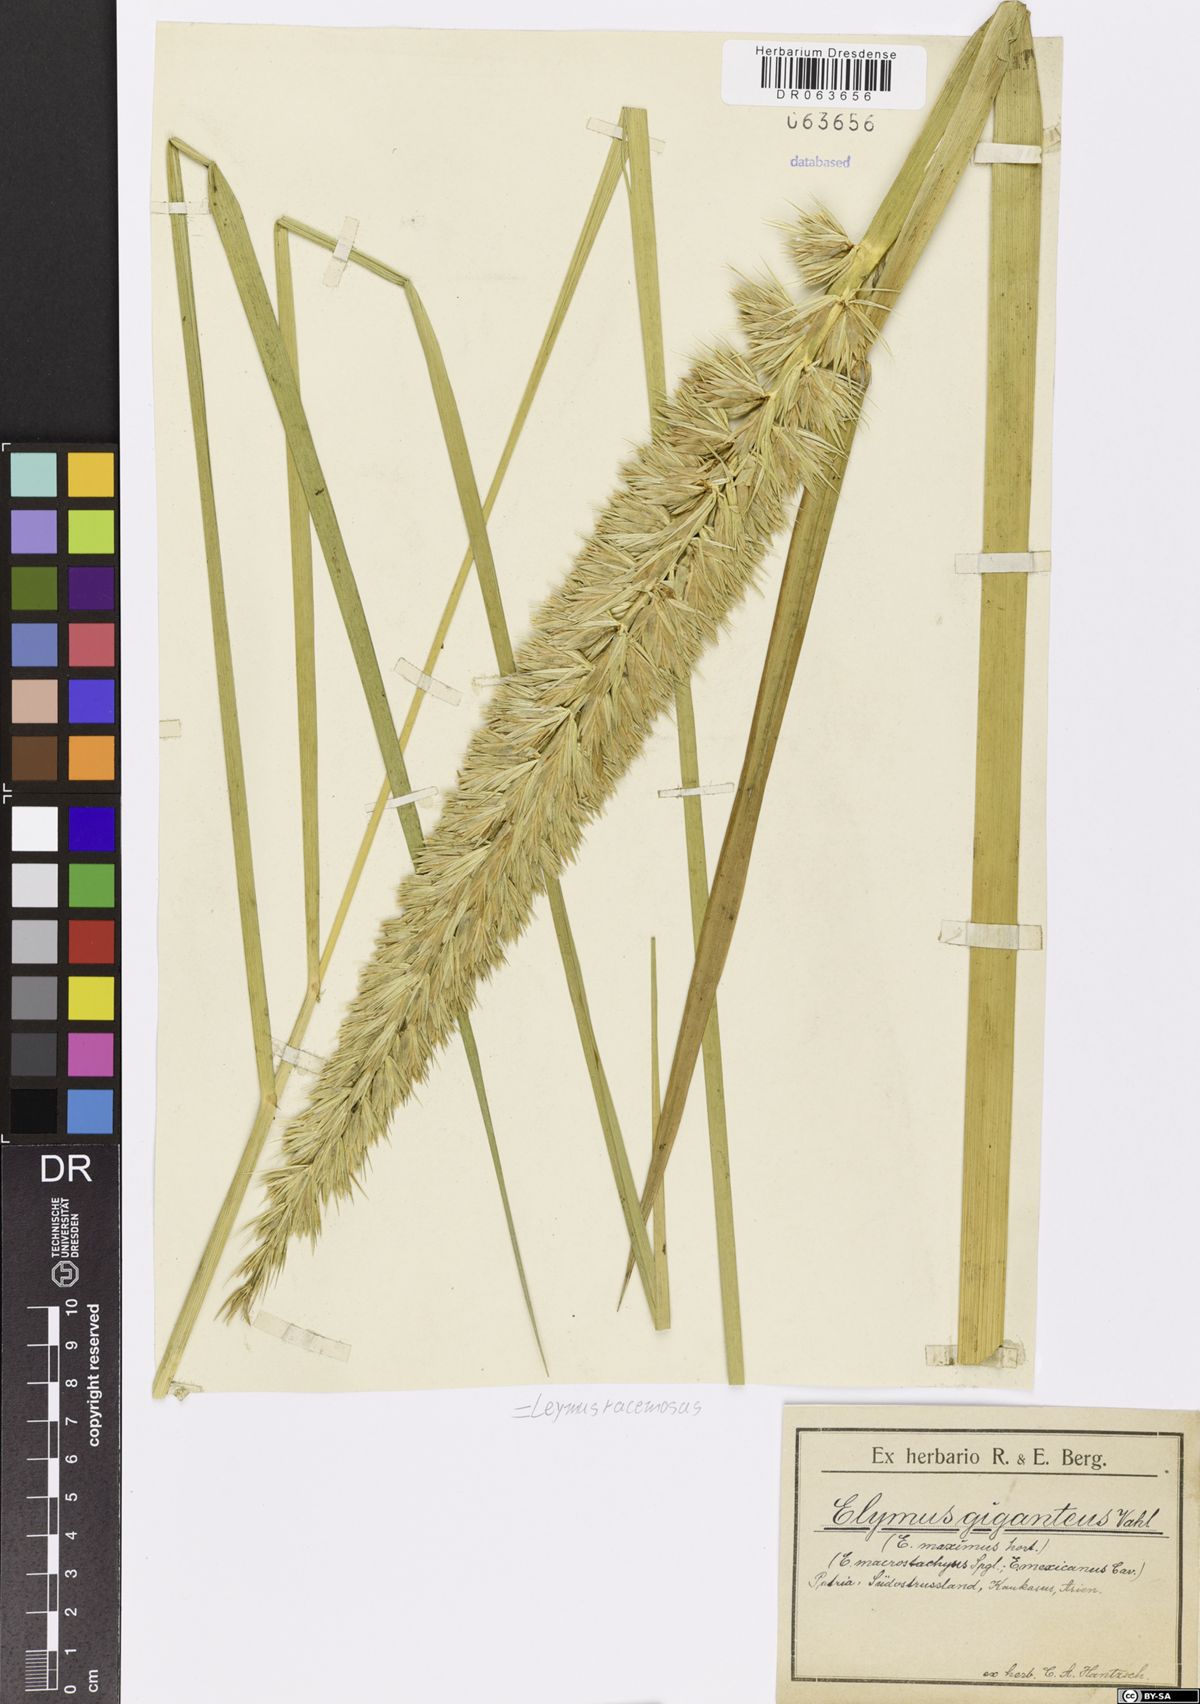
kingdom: Plantae
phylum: Tracheophyta
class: Liliopsida
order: Poales
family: Poaceae
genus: Leymus
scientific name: Leymus racemosus
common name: Mammoth wildrye
